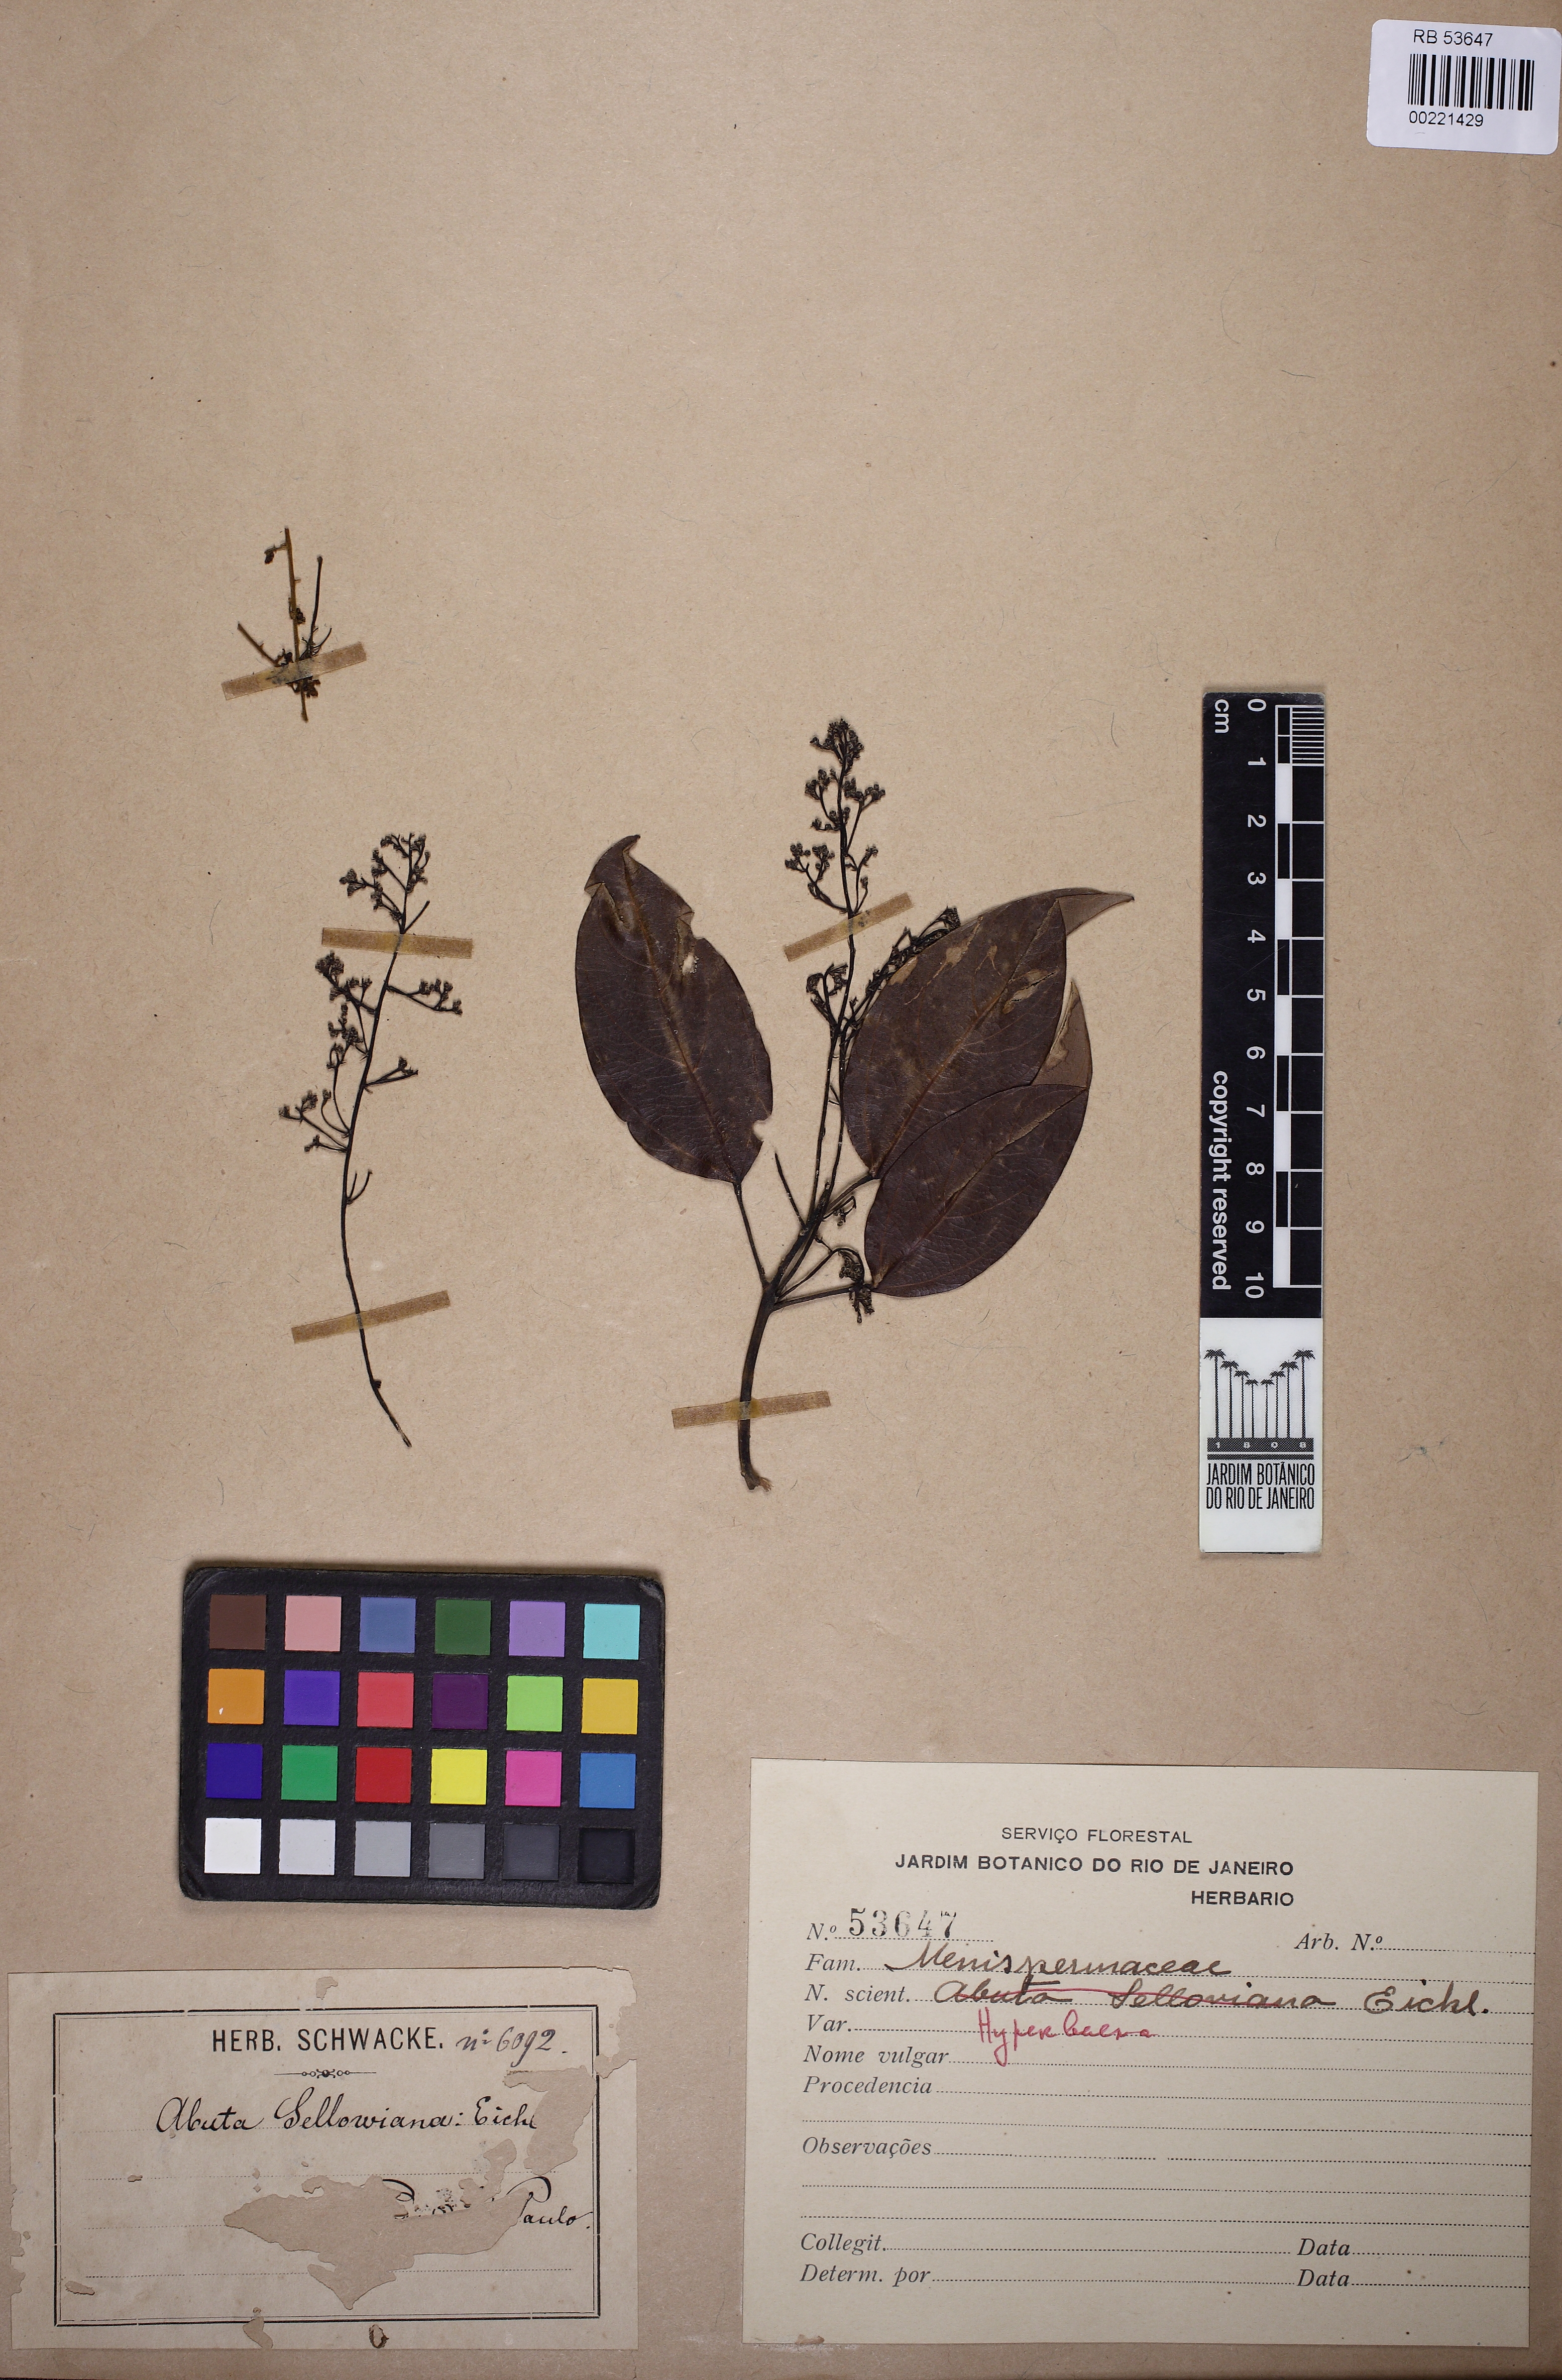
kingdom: Plantae
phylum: Tracheophyta
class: Magnoliopsida
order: Ranunculales
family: Menispermaceae
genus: Hyperbaena
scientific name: Hyperbaena
